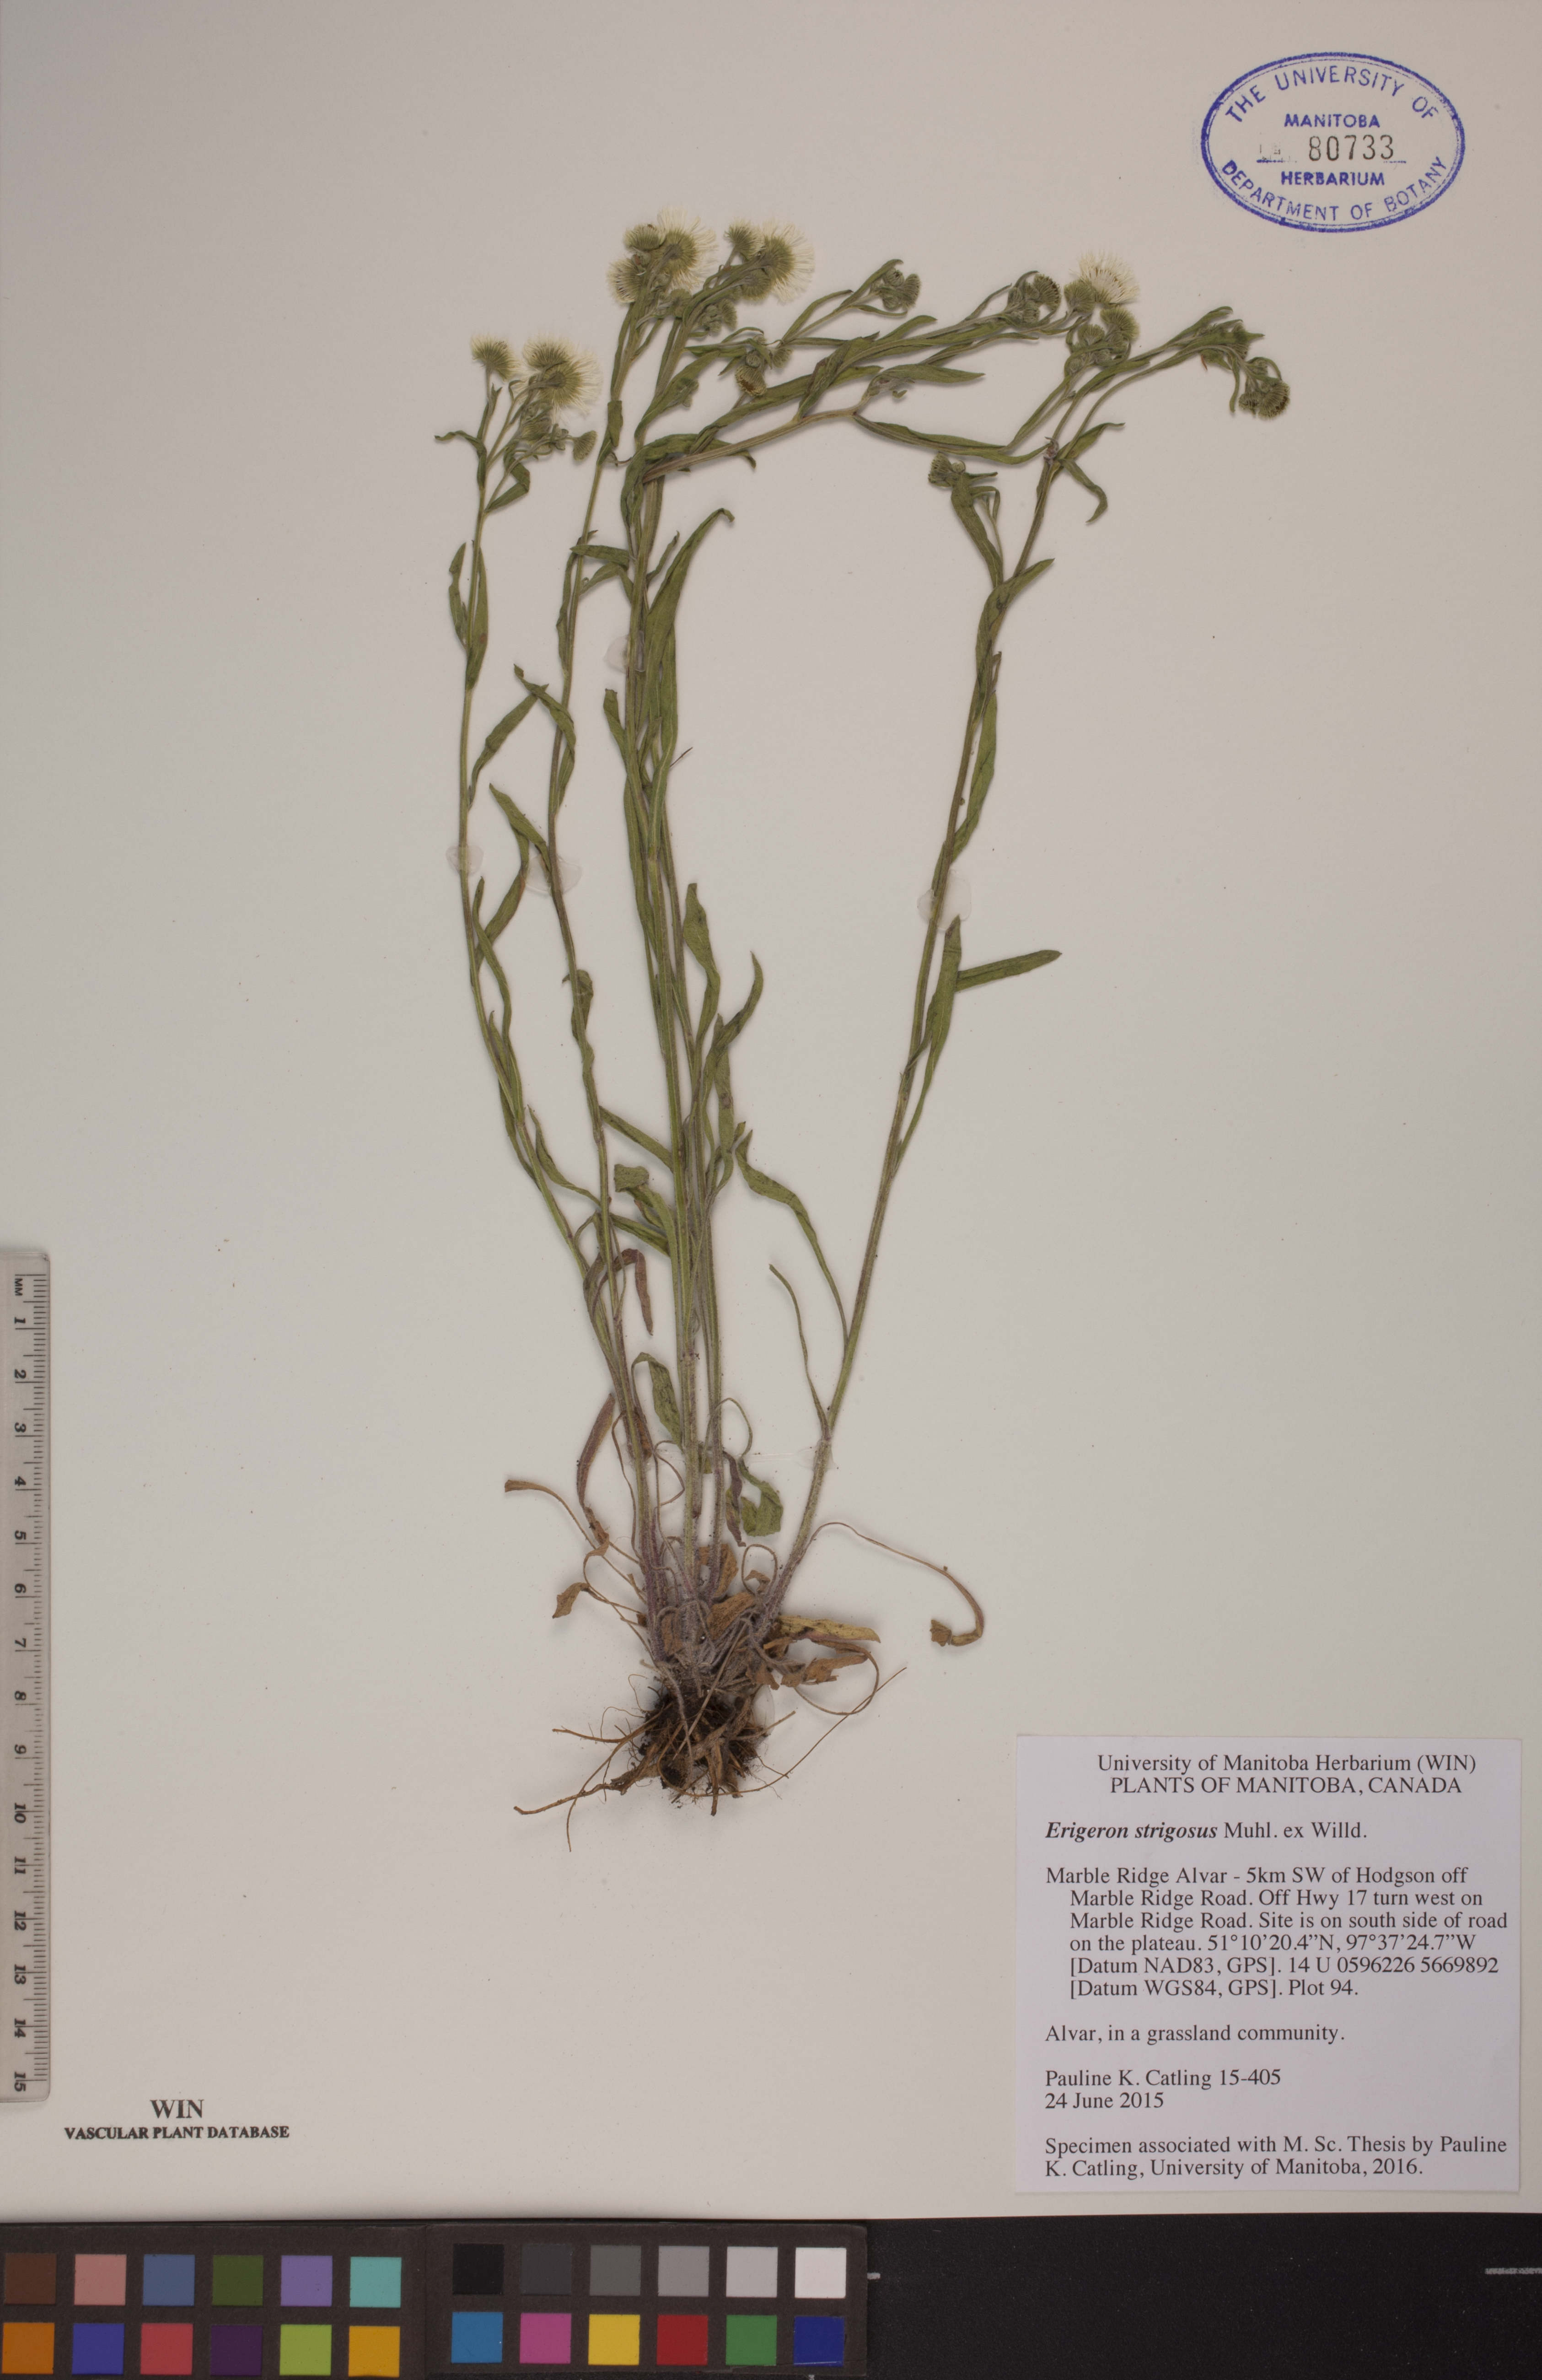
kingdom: Plantae
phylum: Tracheophyta
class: Magnoliopsida
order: Asterales
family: Asteraceae
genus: Erigeron
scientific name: Erigeron strigosus
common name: Common eastern fleabane
